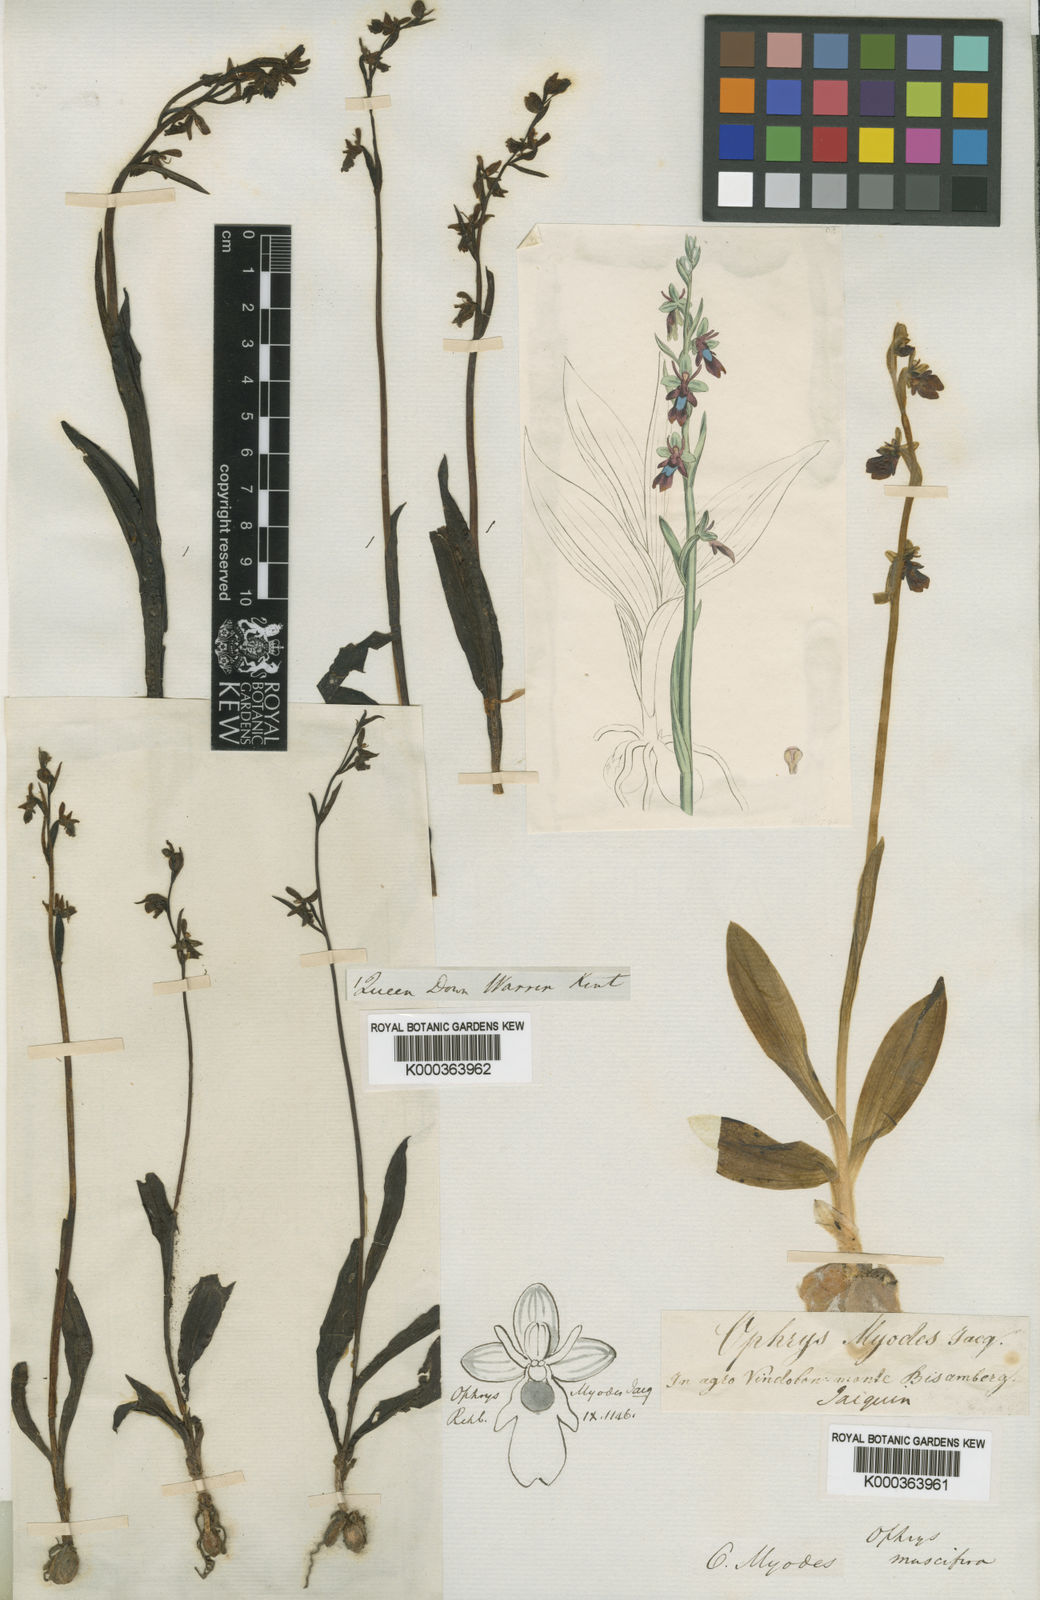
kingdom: Plantae
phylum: Tracheophyta
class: Liliopsida
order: Asparagales
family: Orchidaceae
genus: Ophrys
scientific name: Ophrys insectifera
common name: Fly orchid
